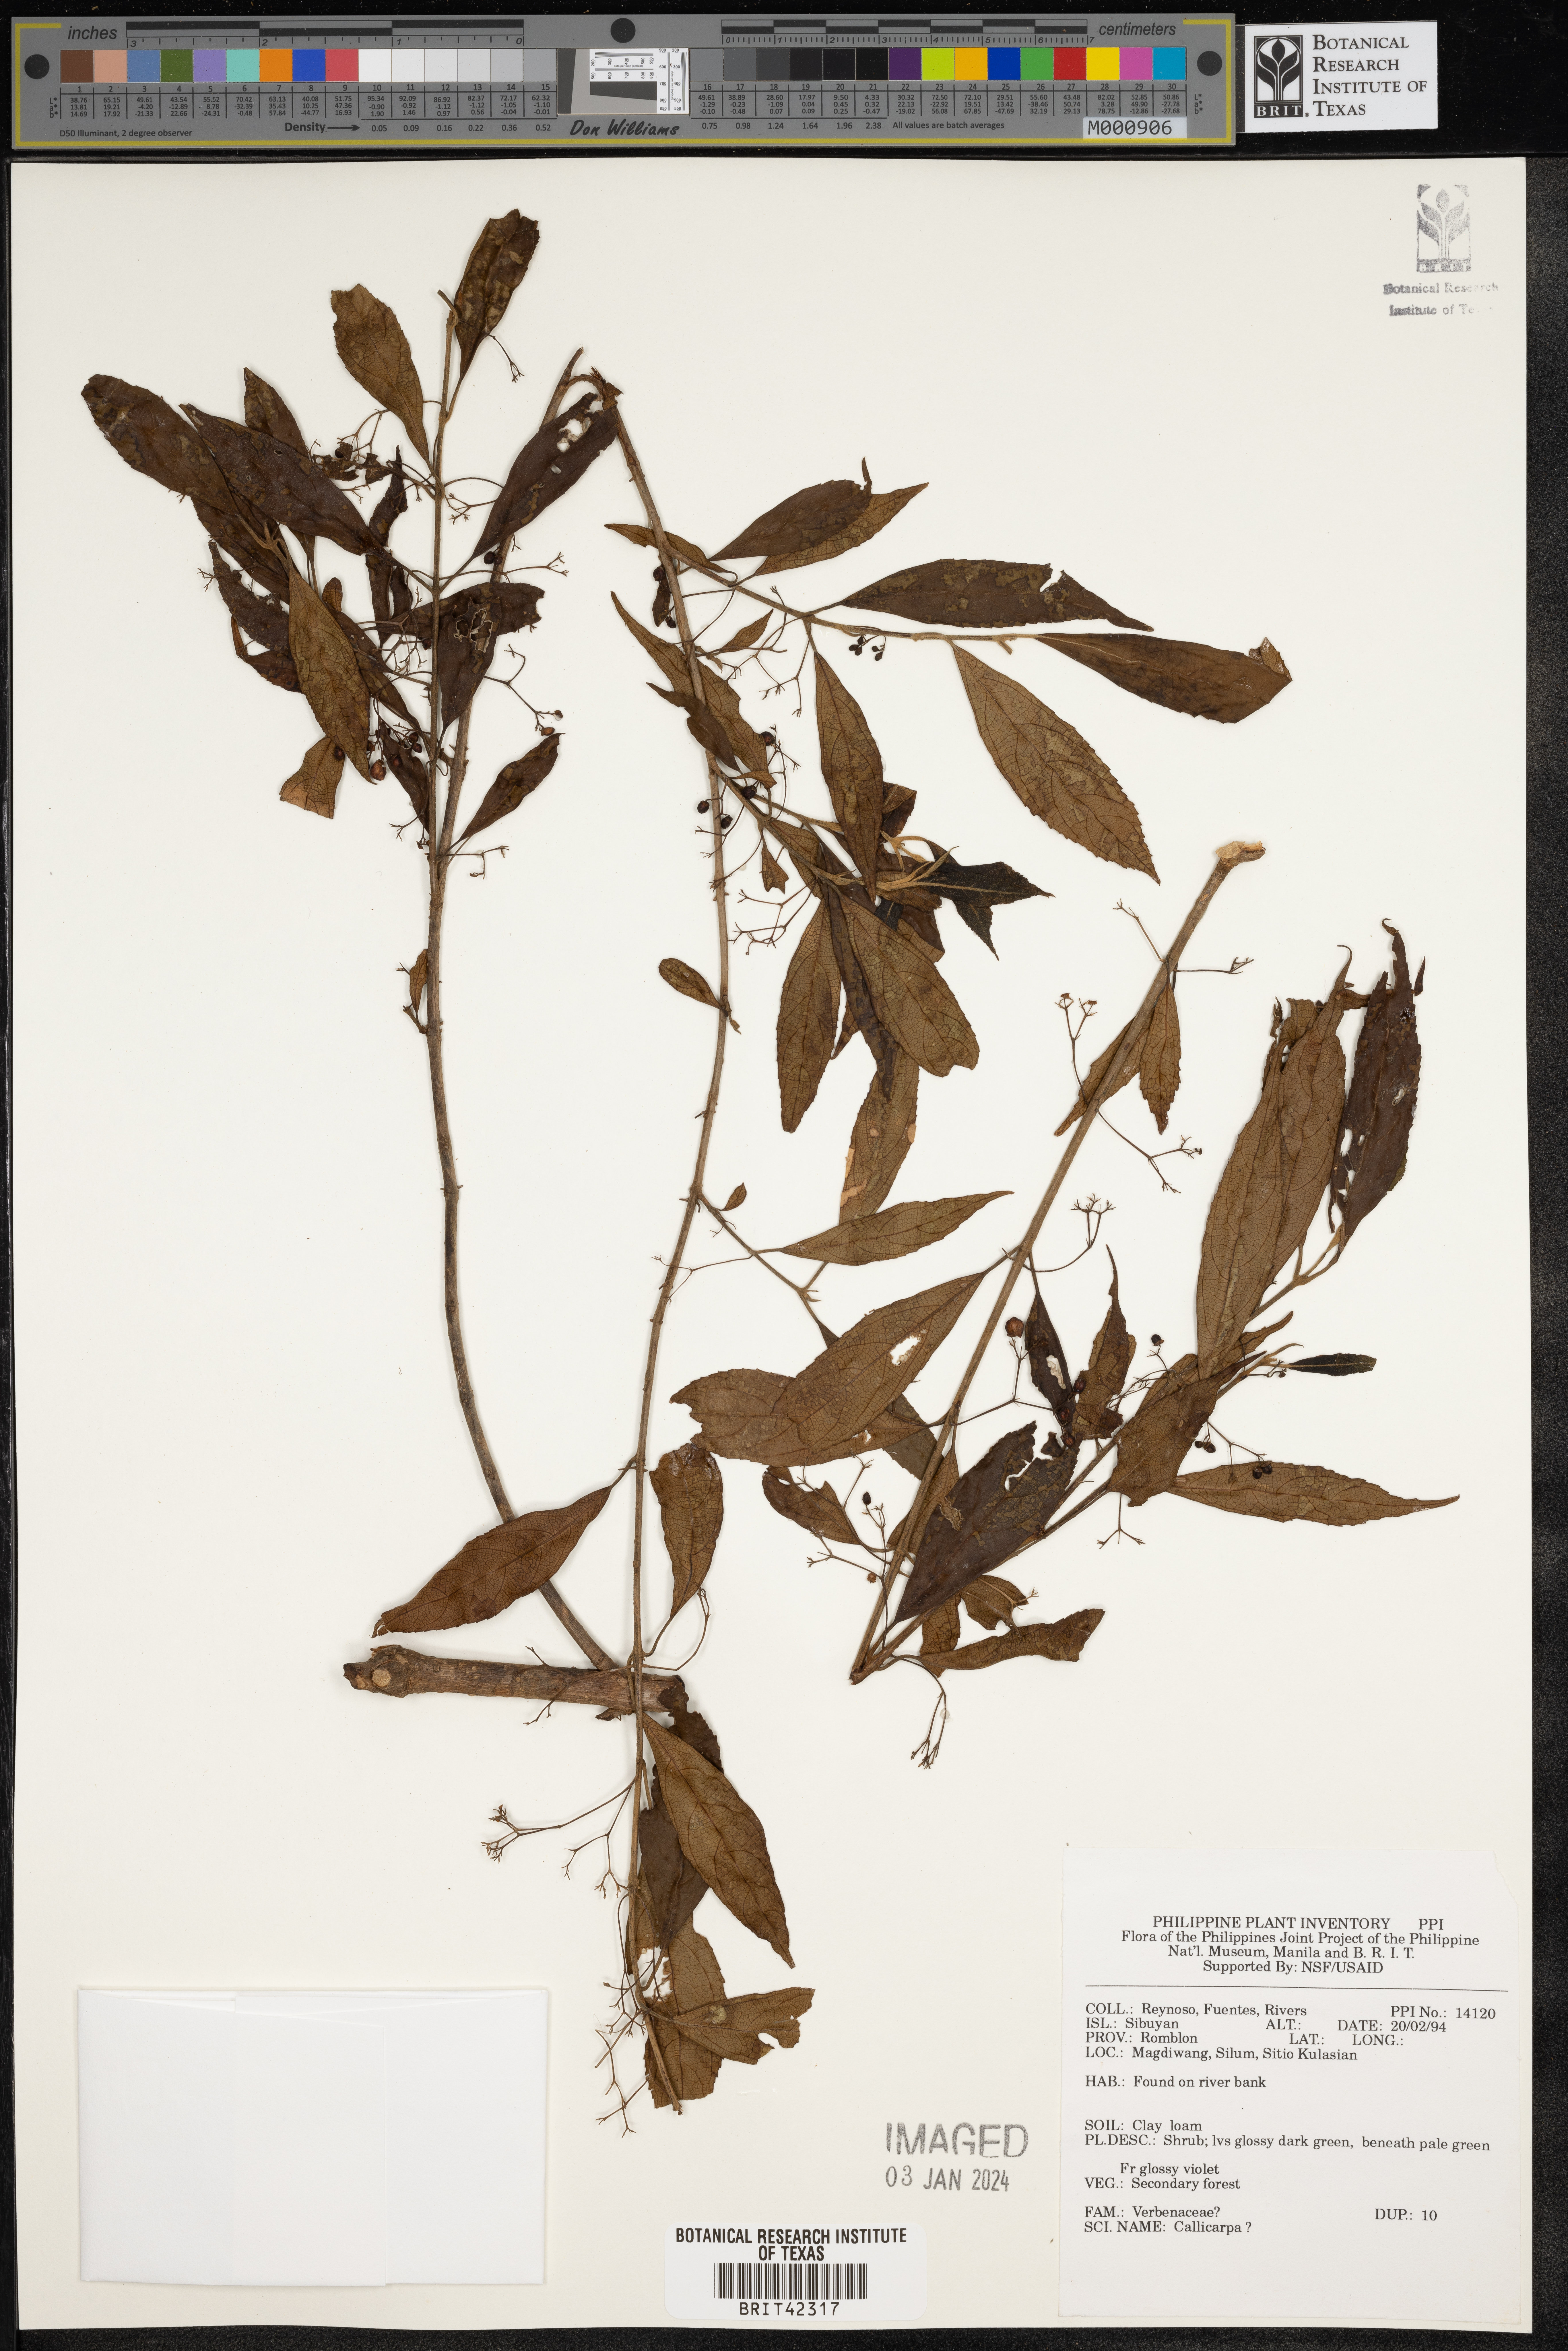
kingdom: Plantae
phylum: Tracheophyta
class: Magnoliopsida
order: Lamiales
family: Lamiaceae
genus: Callicarpa
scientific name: Callicarpa
